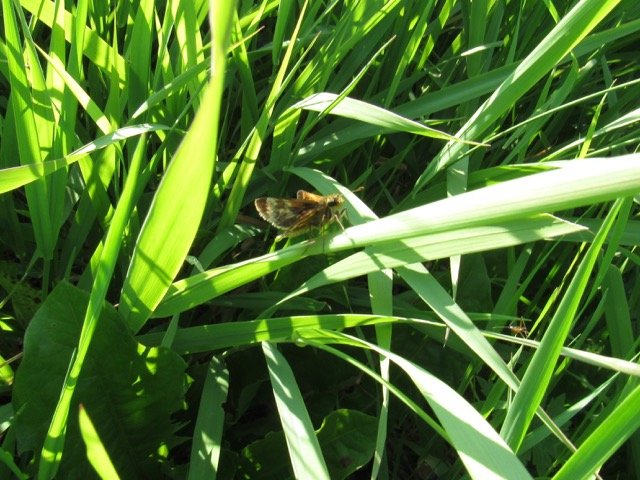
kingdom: Animalia
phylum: Arthropoda
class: Insecta
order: Lepidoptera
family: Hesperiidae
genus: Polites
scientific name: Polites coras
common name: Peck's Skipper
